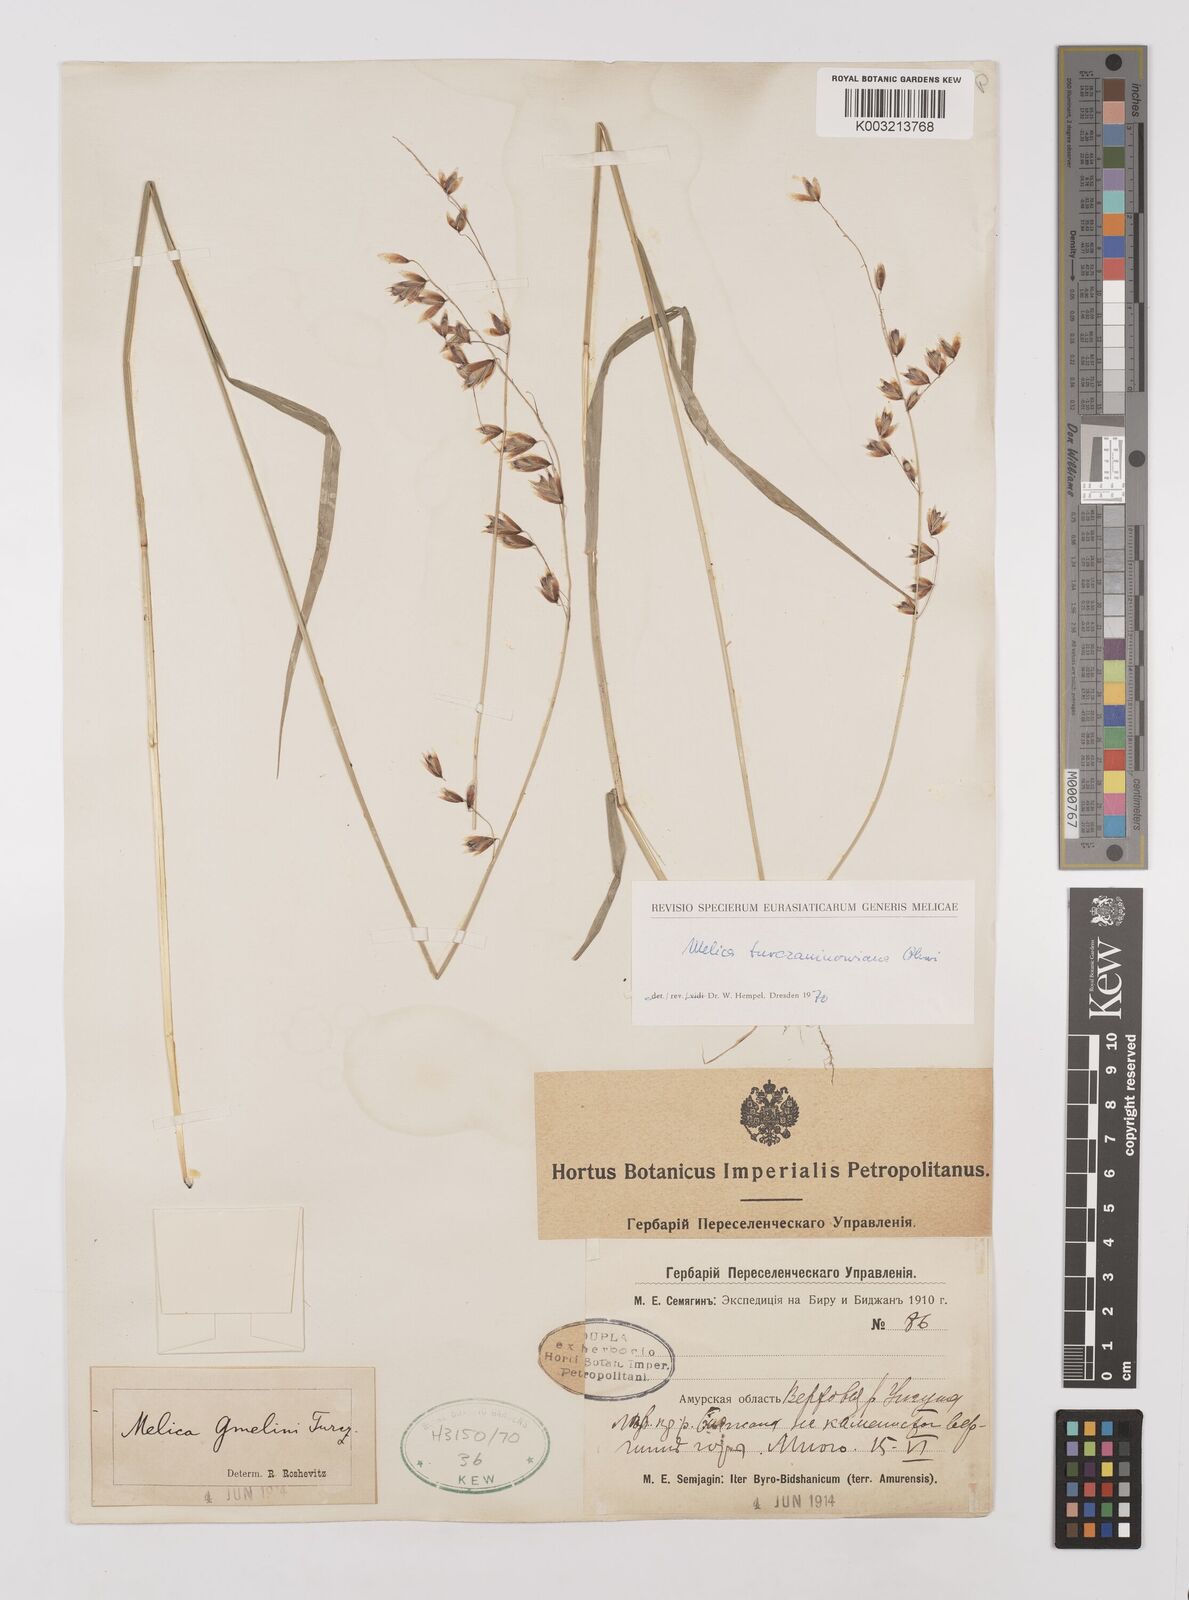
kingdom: Plantae
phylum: Tracheophyta
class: Liliopsida
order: Poales
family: Poaceae
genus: Melica
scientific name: Melica turczaninowiana
